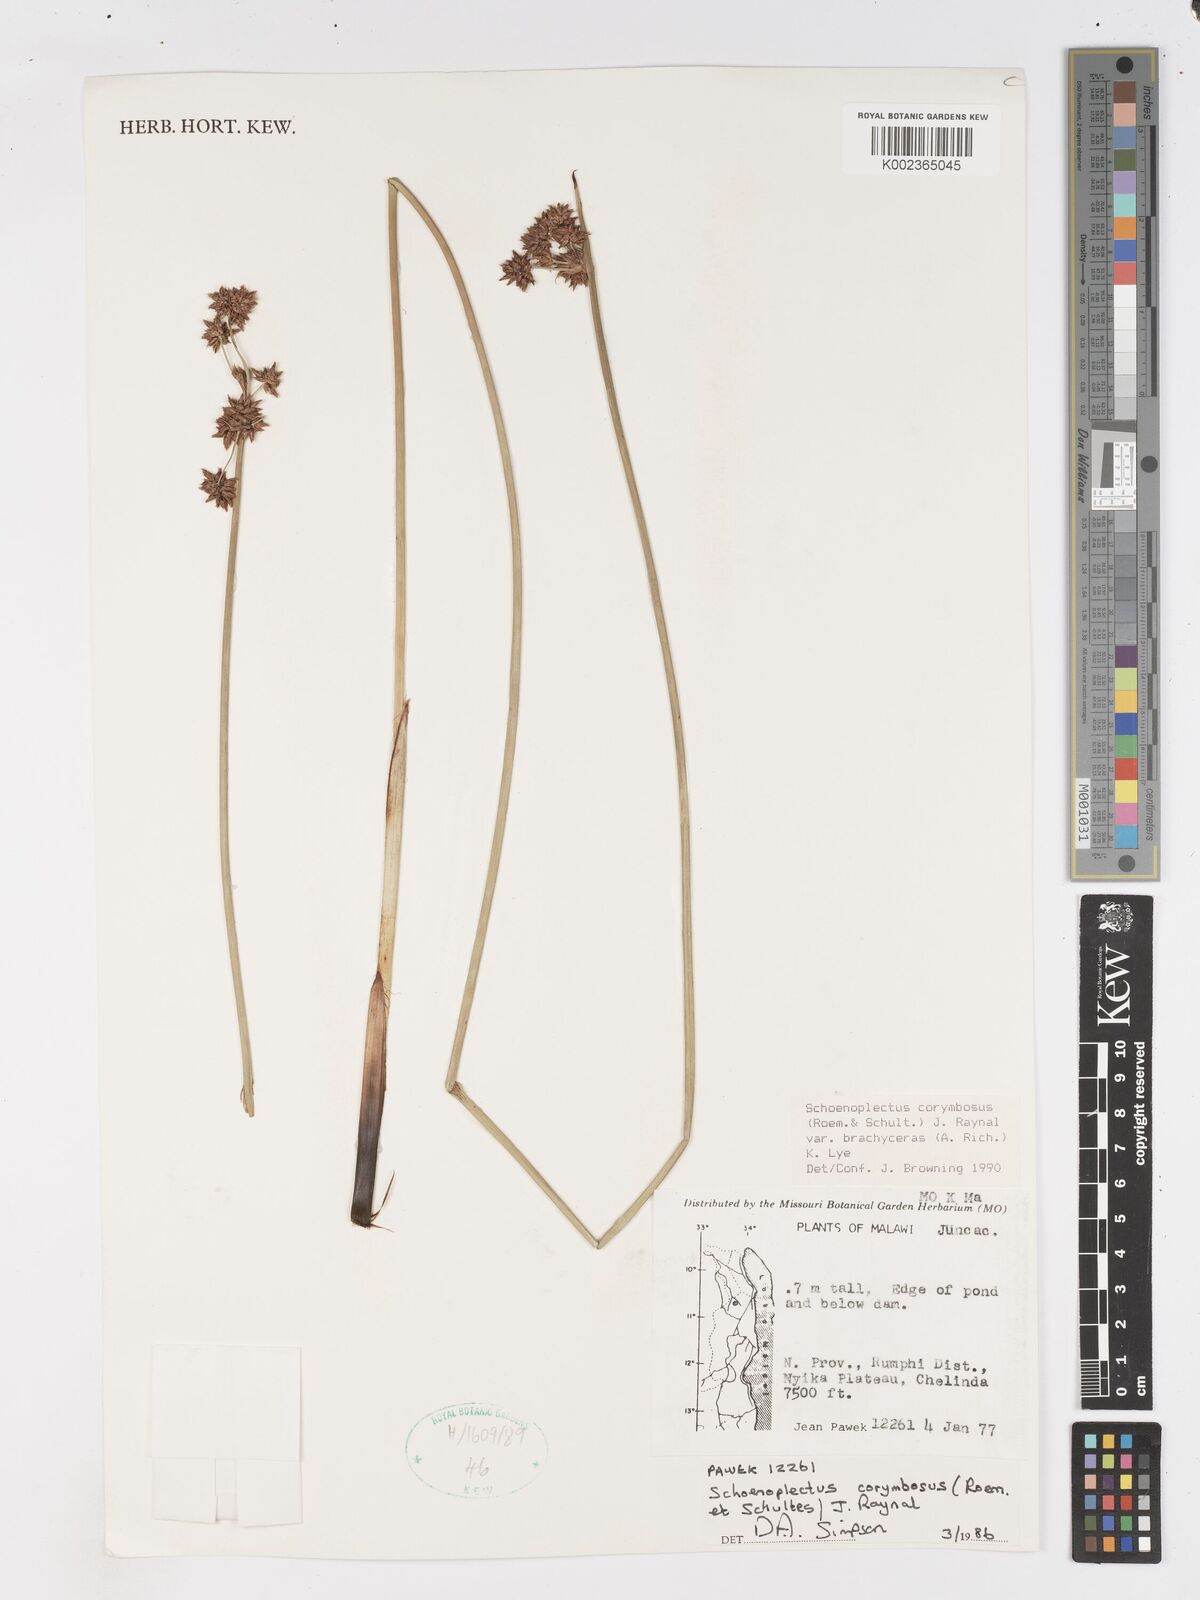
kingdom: Plantae
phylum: Tracheophyta
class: Liliopsida
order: Poales
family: Cyperaceae
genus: Schoenoplectus
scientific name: Schoenoplectus
